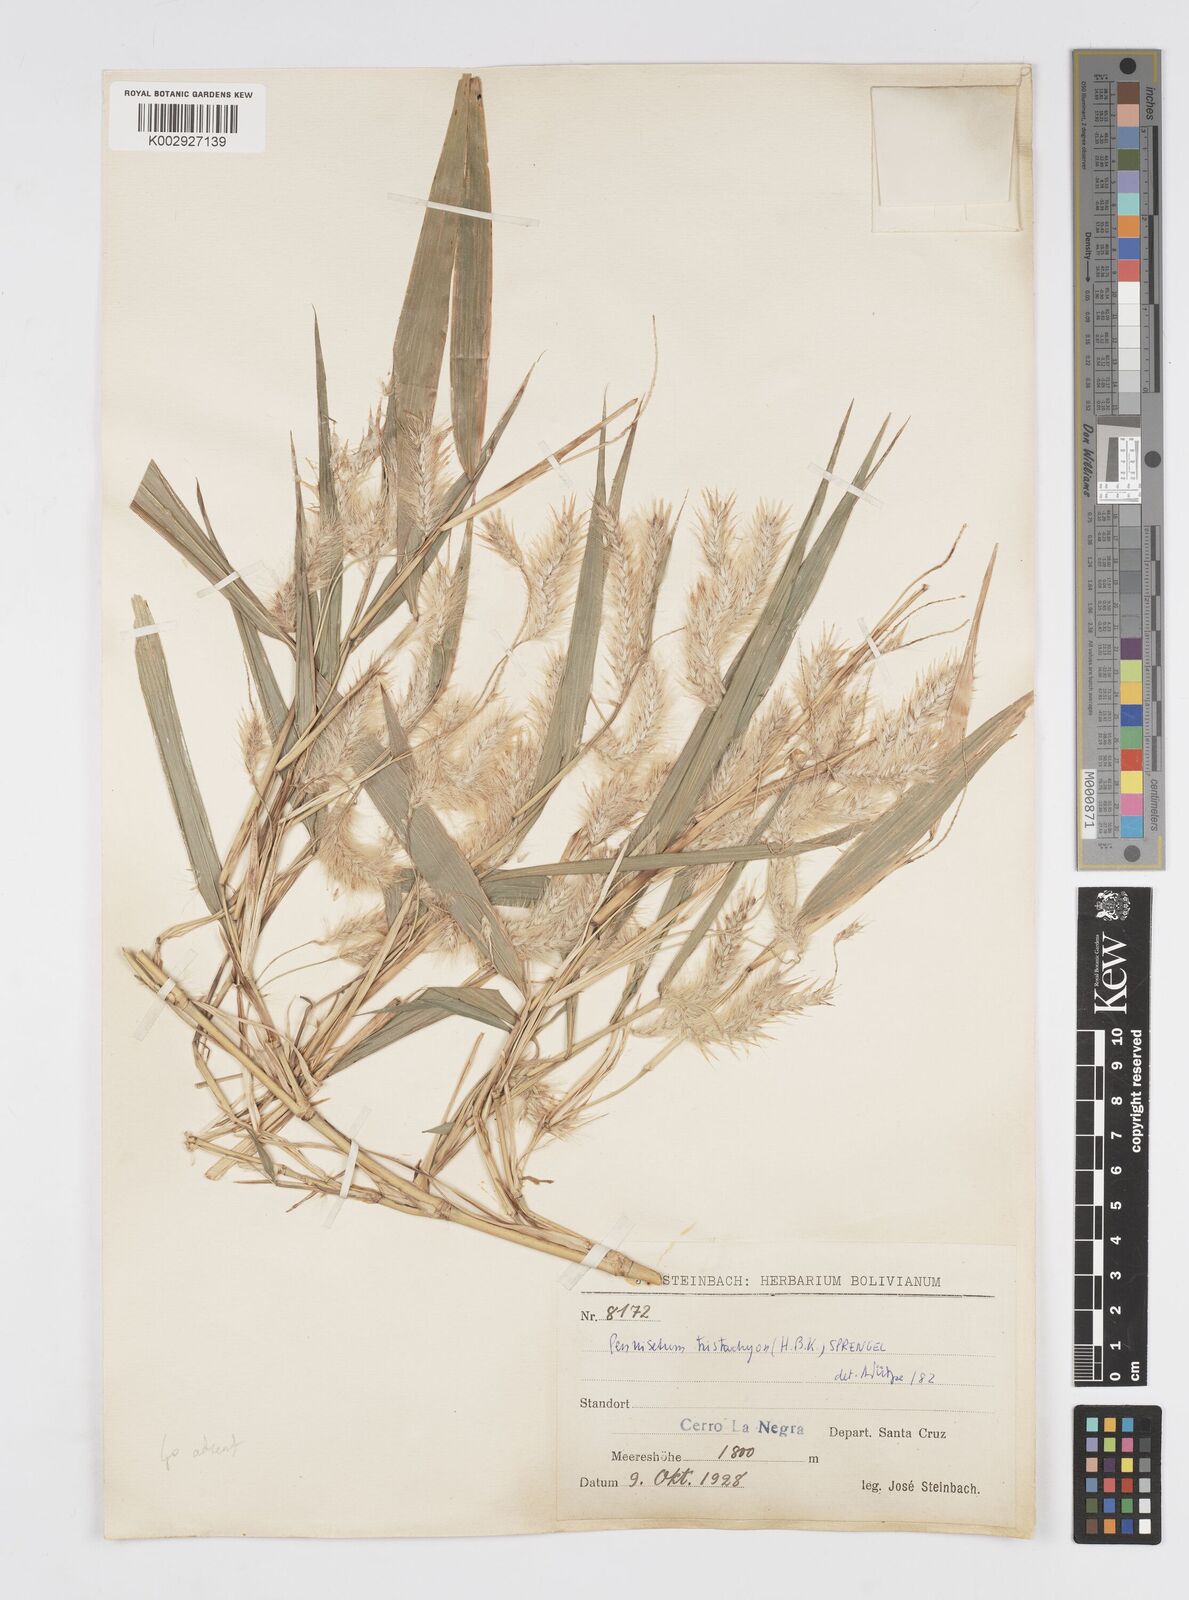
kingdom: Plantae
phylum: Tracheophyta
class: Liliopsida
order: Poales
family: Poaceae
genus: Cenchrus
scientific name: Cenchrus tristachyus
